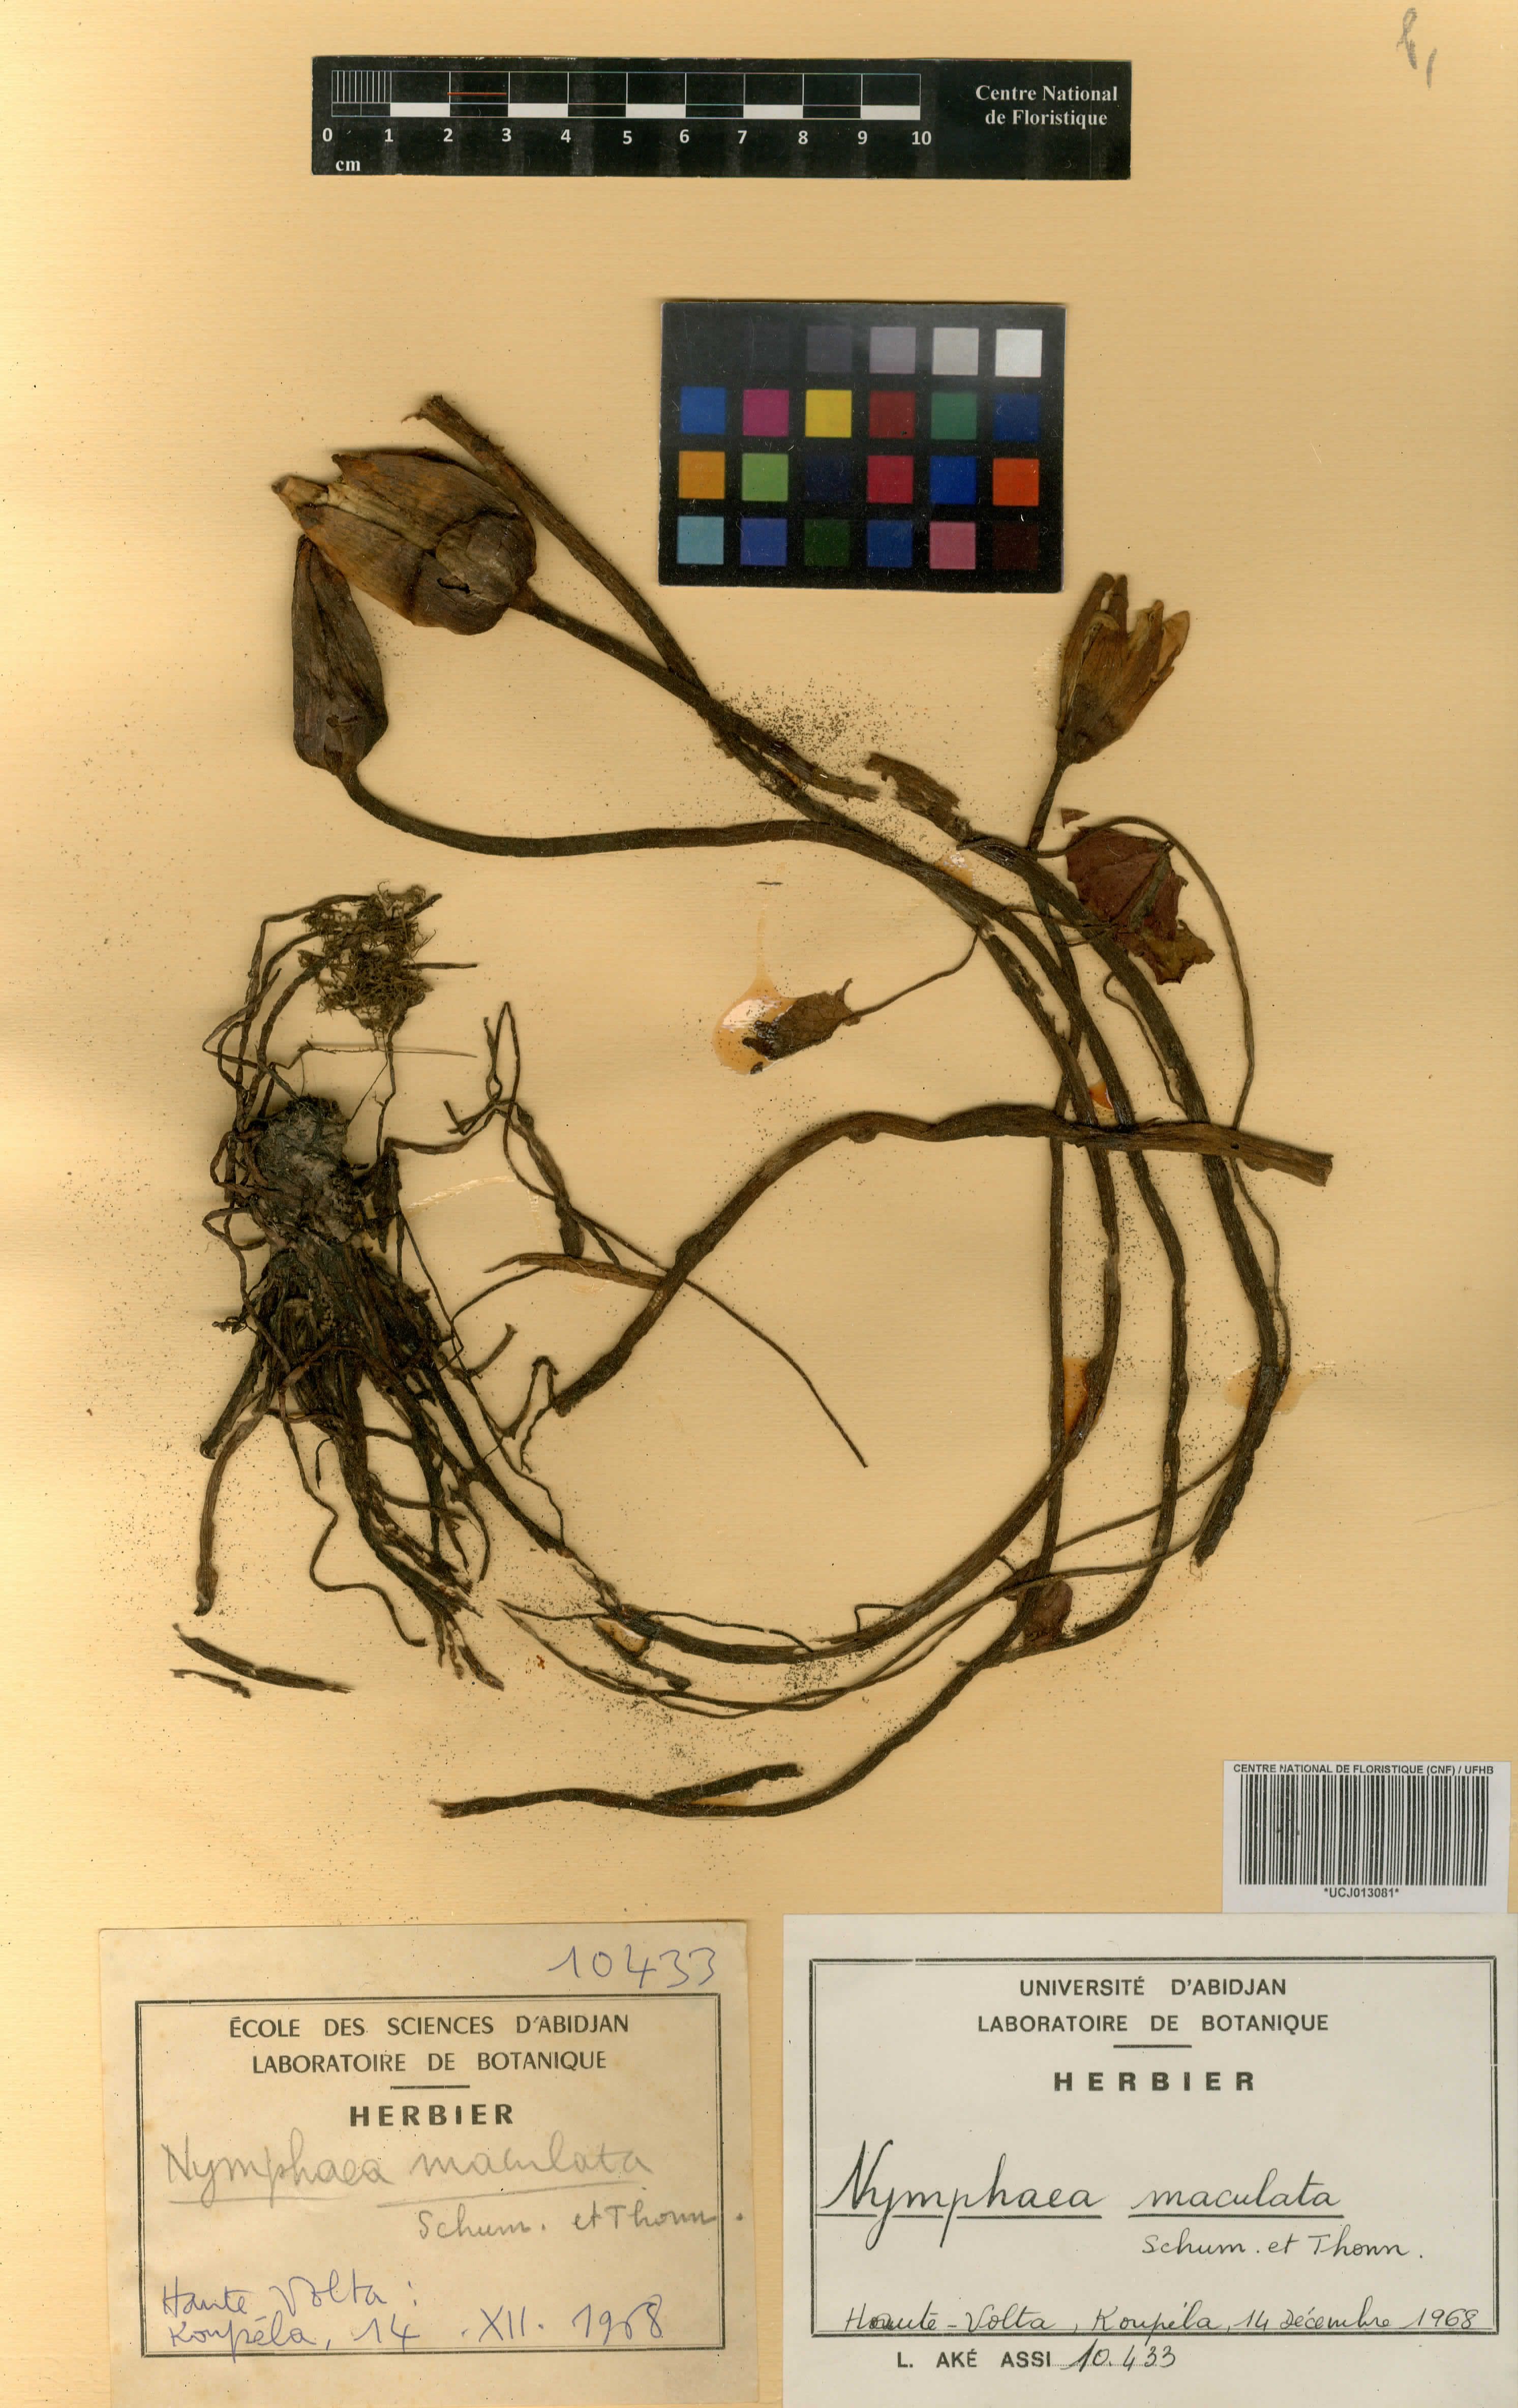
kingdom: Plantae
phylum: Tracheophyta
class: Magnoliopsida
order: Nymphaeales
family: Nymphaeaceae
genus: Nymphaea
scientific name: Nymphaea maculata
